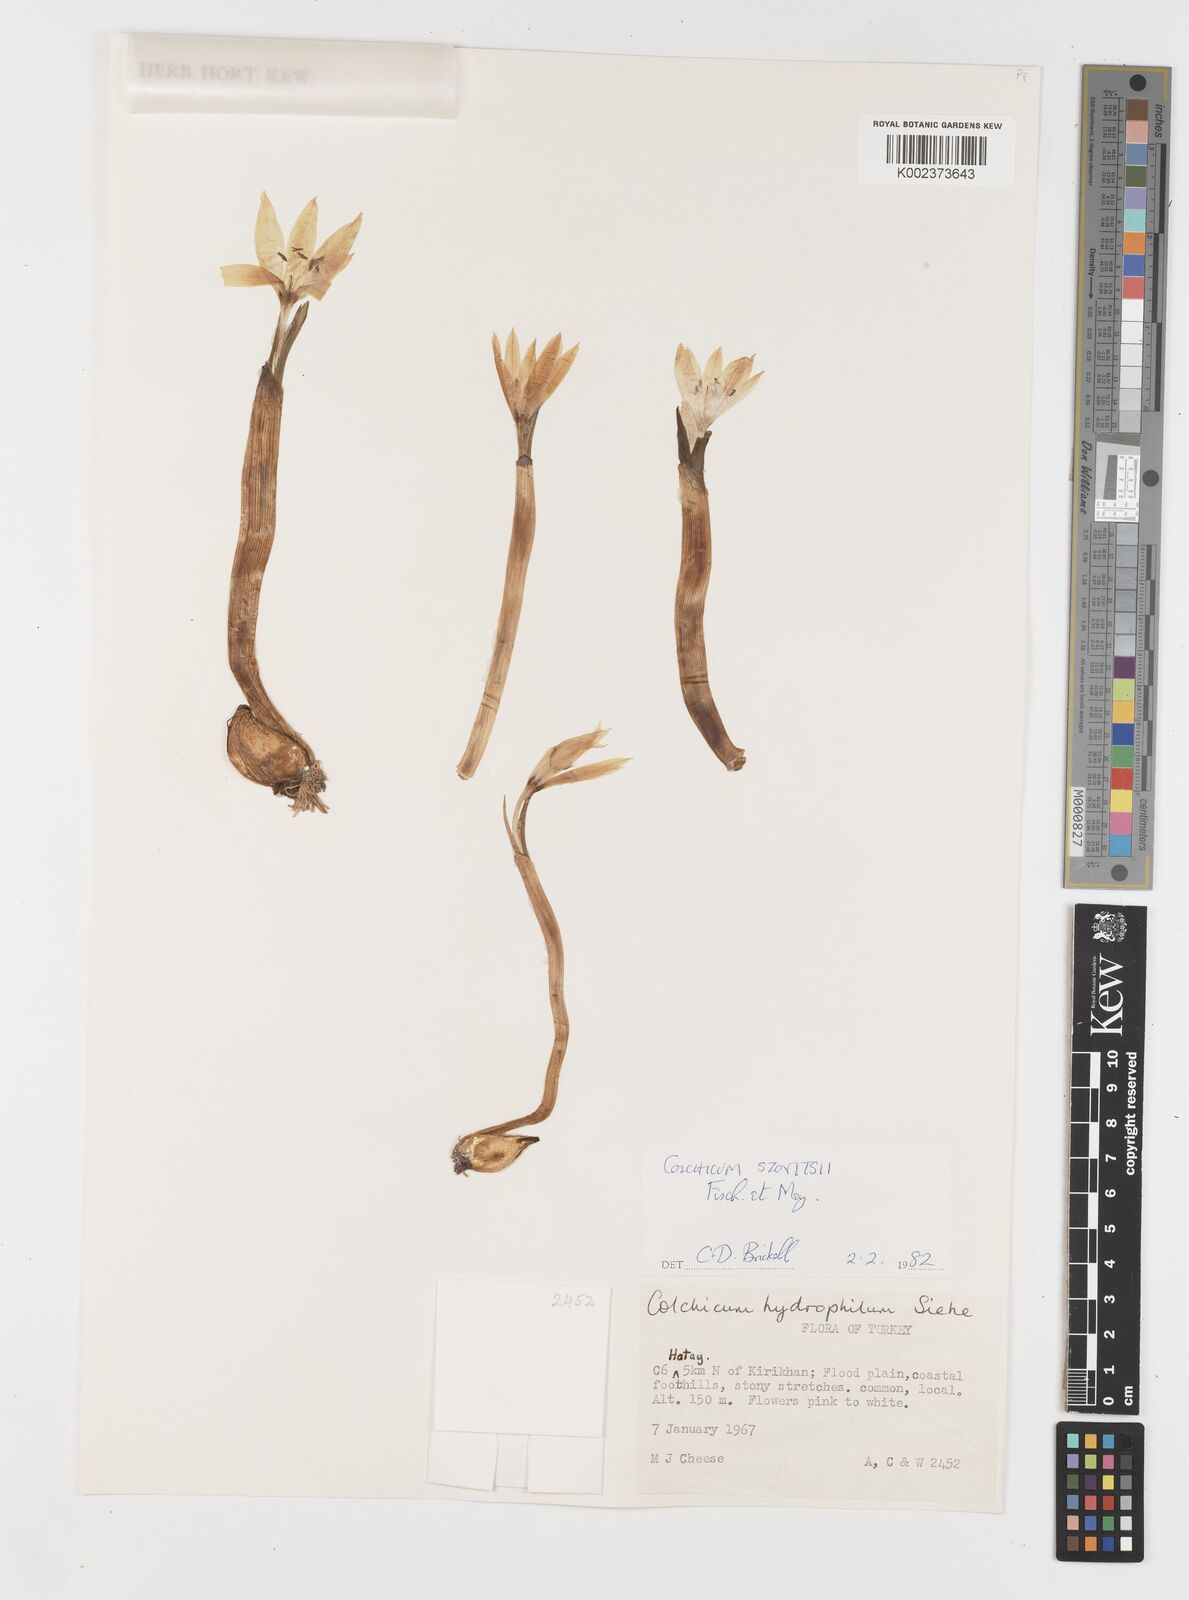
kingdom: Plantae
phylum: Tracheophyta
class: Liliopsida
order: Liliales
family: Colchicaceae
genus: Colchicum
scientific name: Colchicum szovitsii
